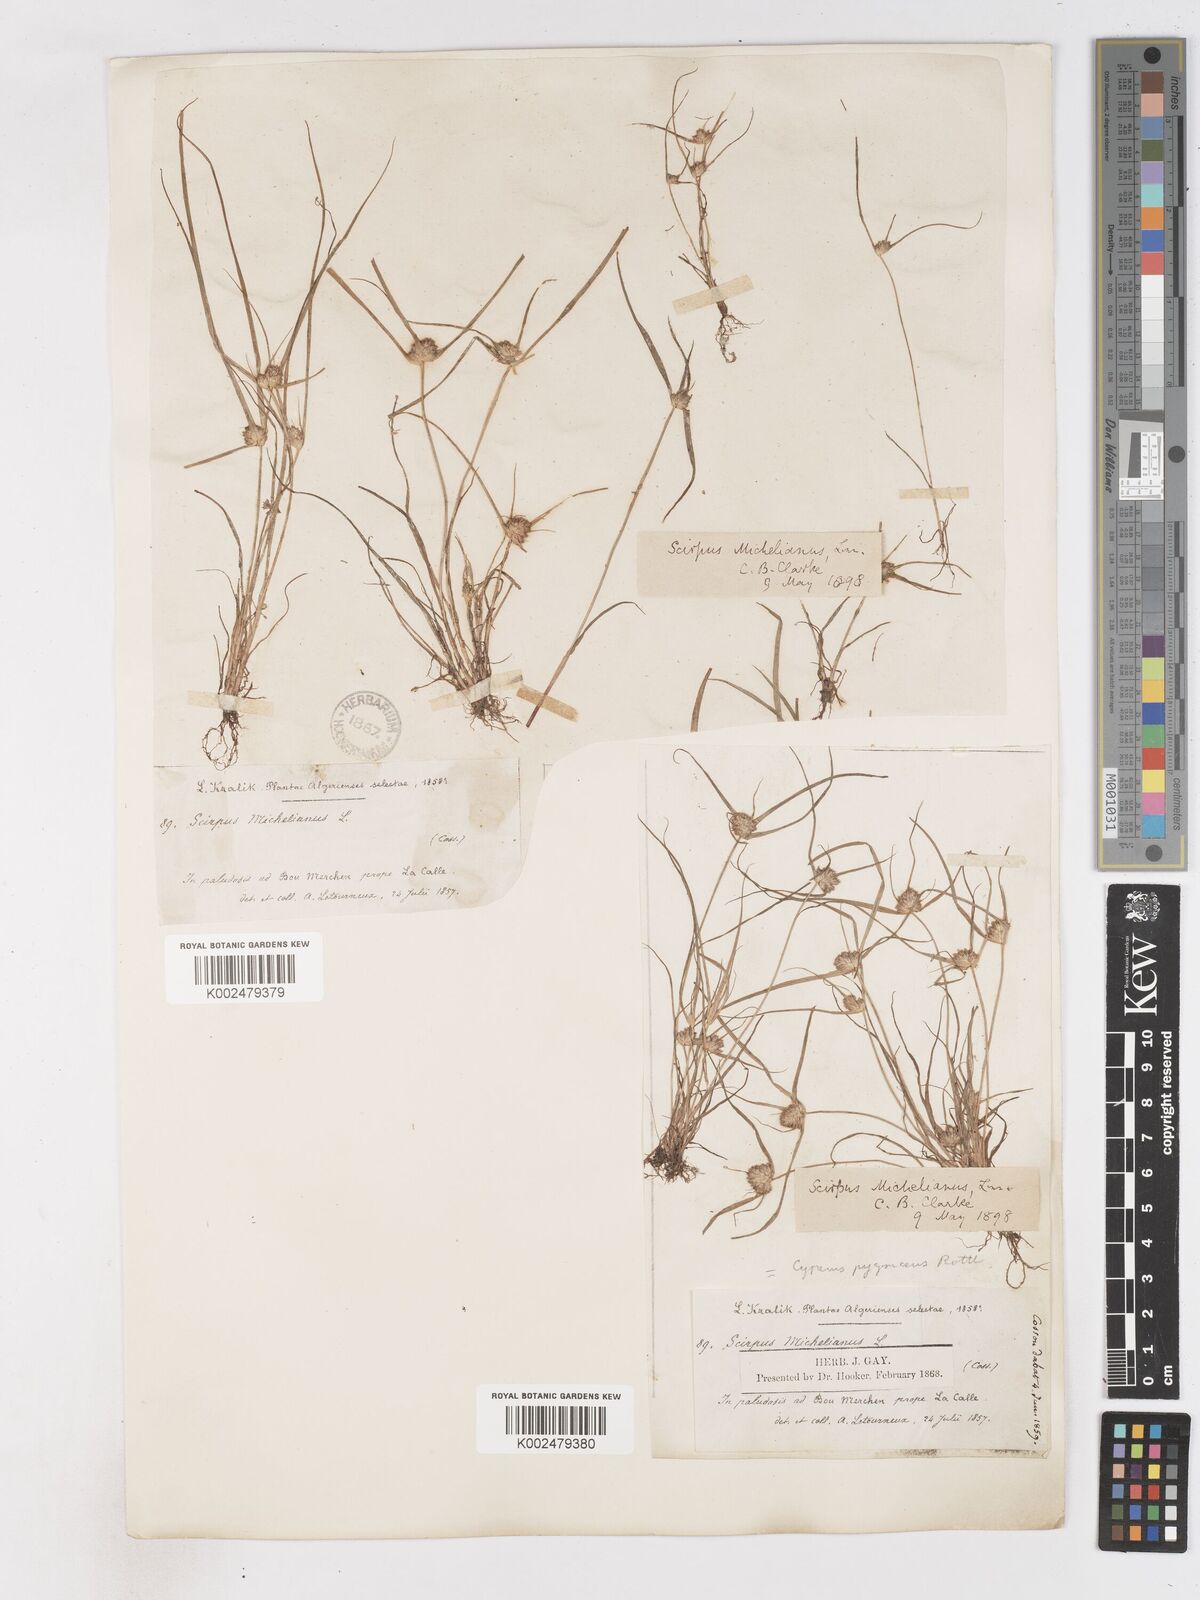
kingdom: Plantae
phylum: Tracheophyta
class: Liliopsida
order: Poales
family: Cyperaceae
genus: Cyperus
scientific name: Cyperus michelianus
